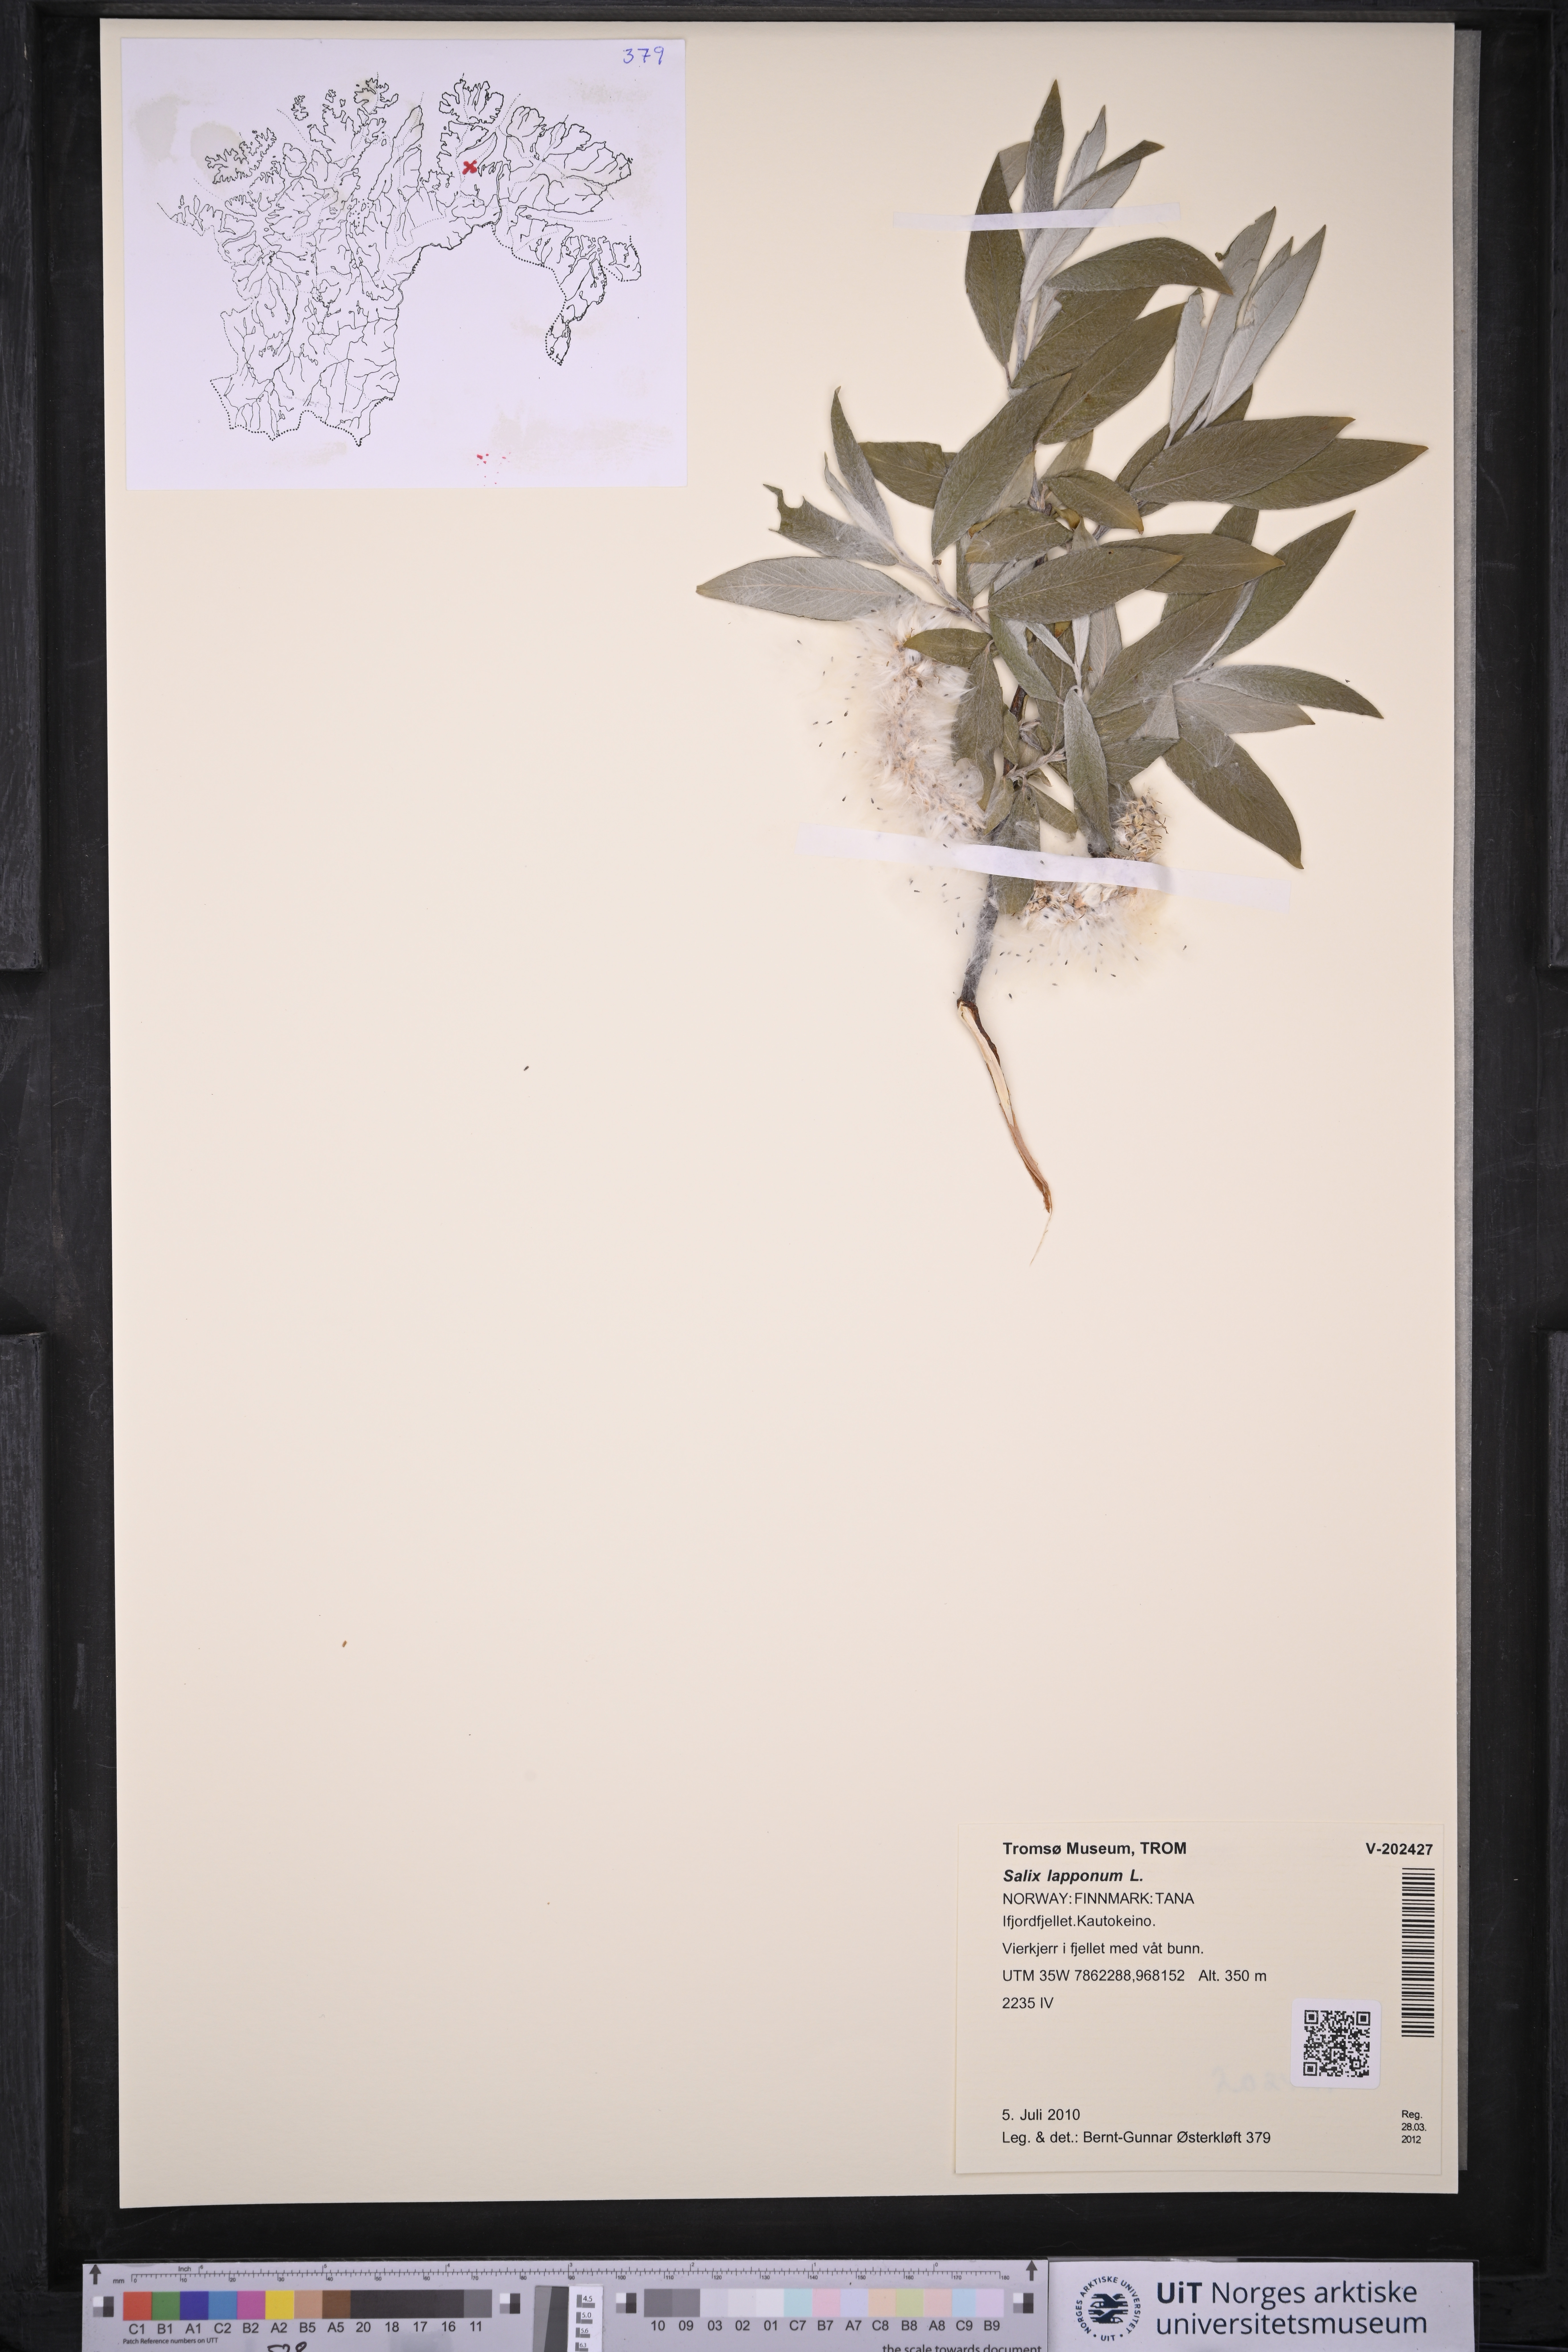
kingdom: Plantae
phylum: Tracheophyta
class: Magnoliopsida
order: Malpighiales
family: Salicaceae
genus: Salix
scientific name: Salix lapponum
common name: Downy willow
